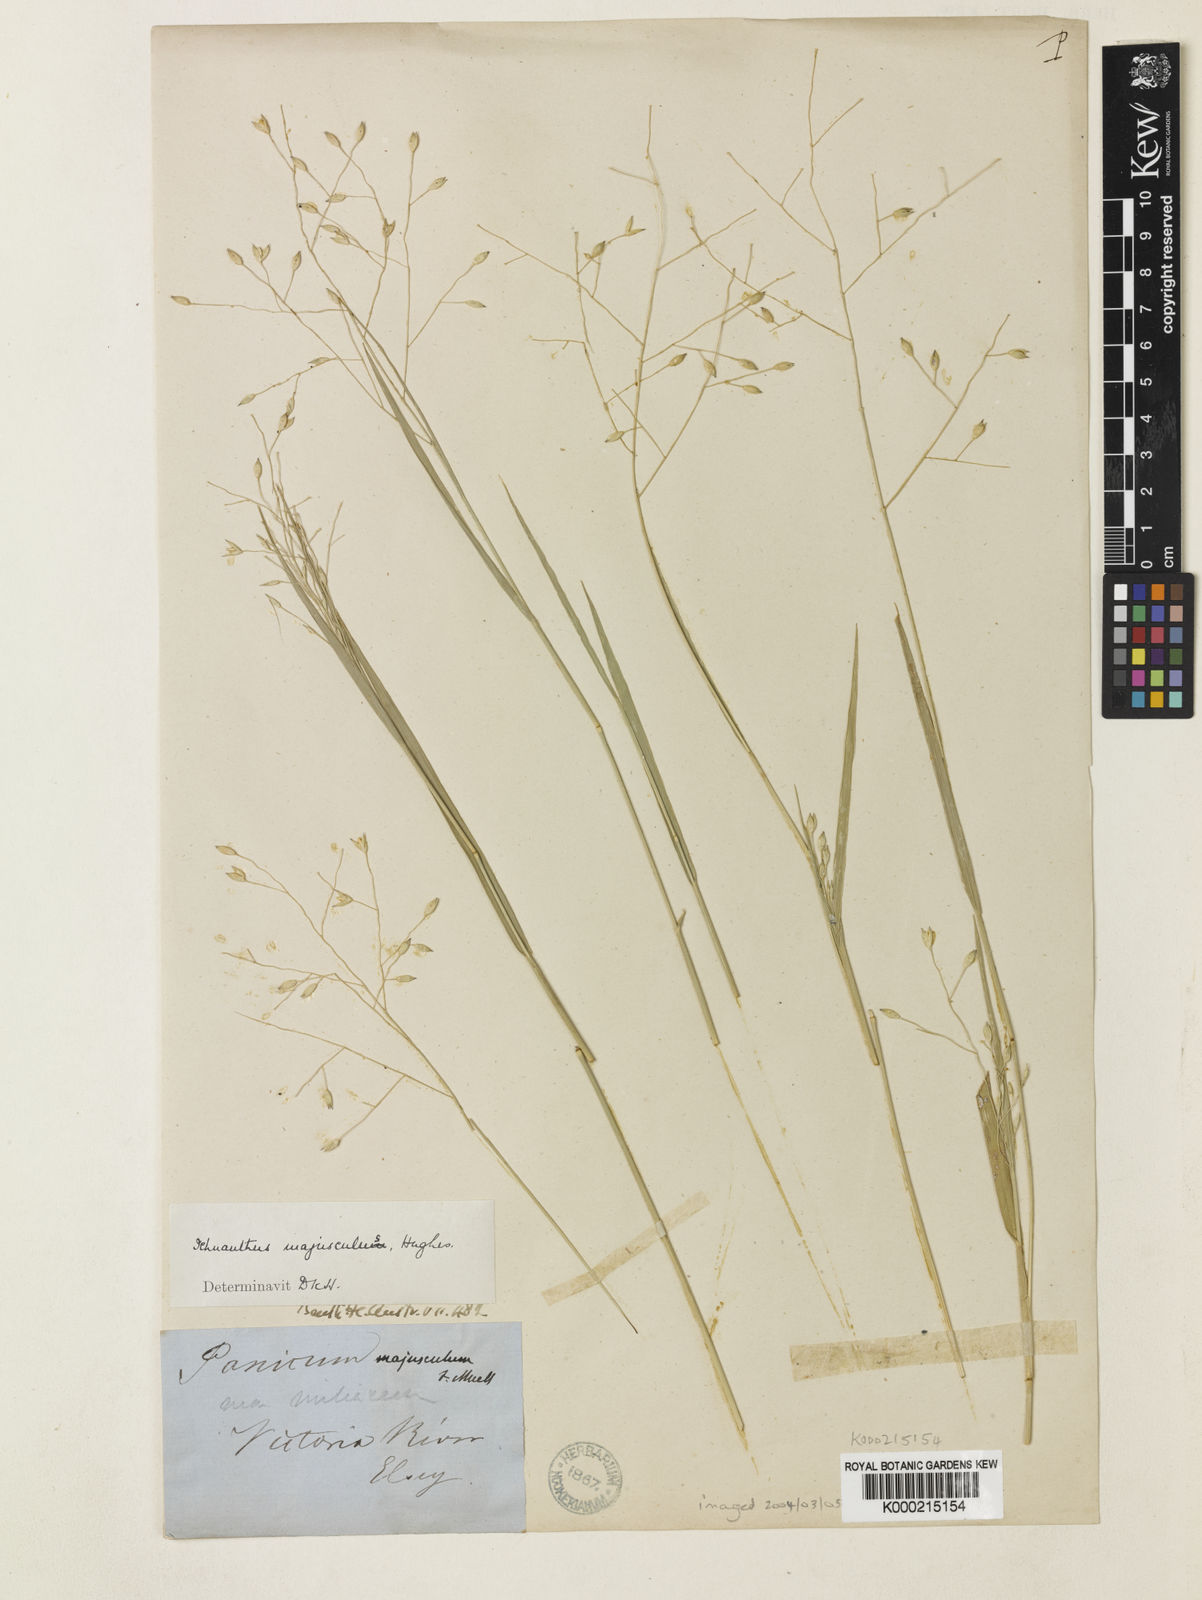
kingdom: Plantae
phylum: Tracheophyta
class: Liliopsida
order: Poales
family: Poaceae
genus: Panicum
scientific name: Panicum majusculum
